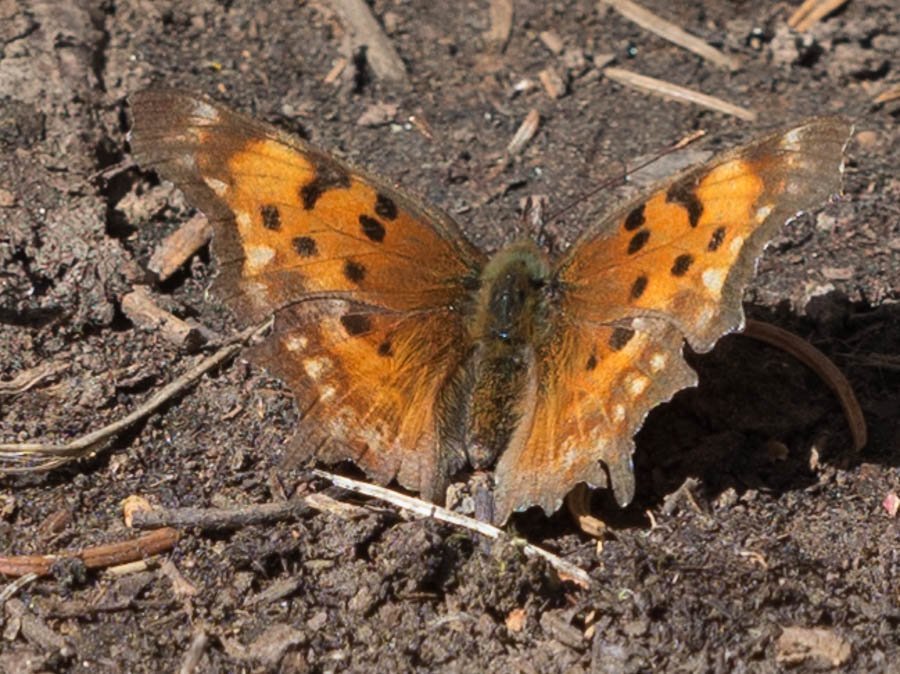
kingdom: Animalia
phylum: Arthropoda
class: Insecta
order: Lepidoptera
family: Nymphalidae
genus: Polygonia
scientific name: Polygonia gracilis
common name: Hoary Comma
